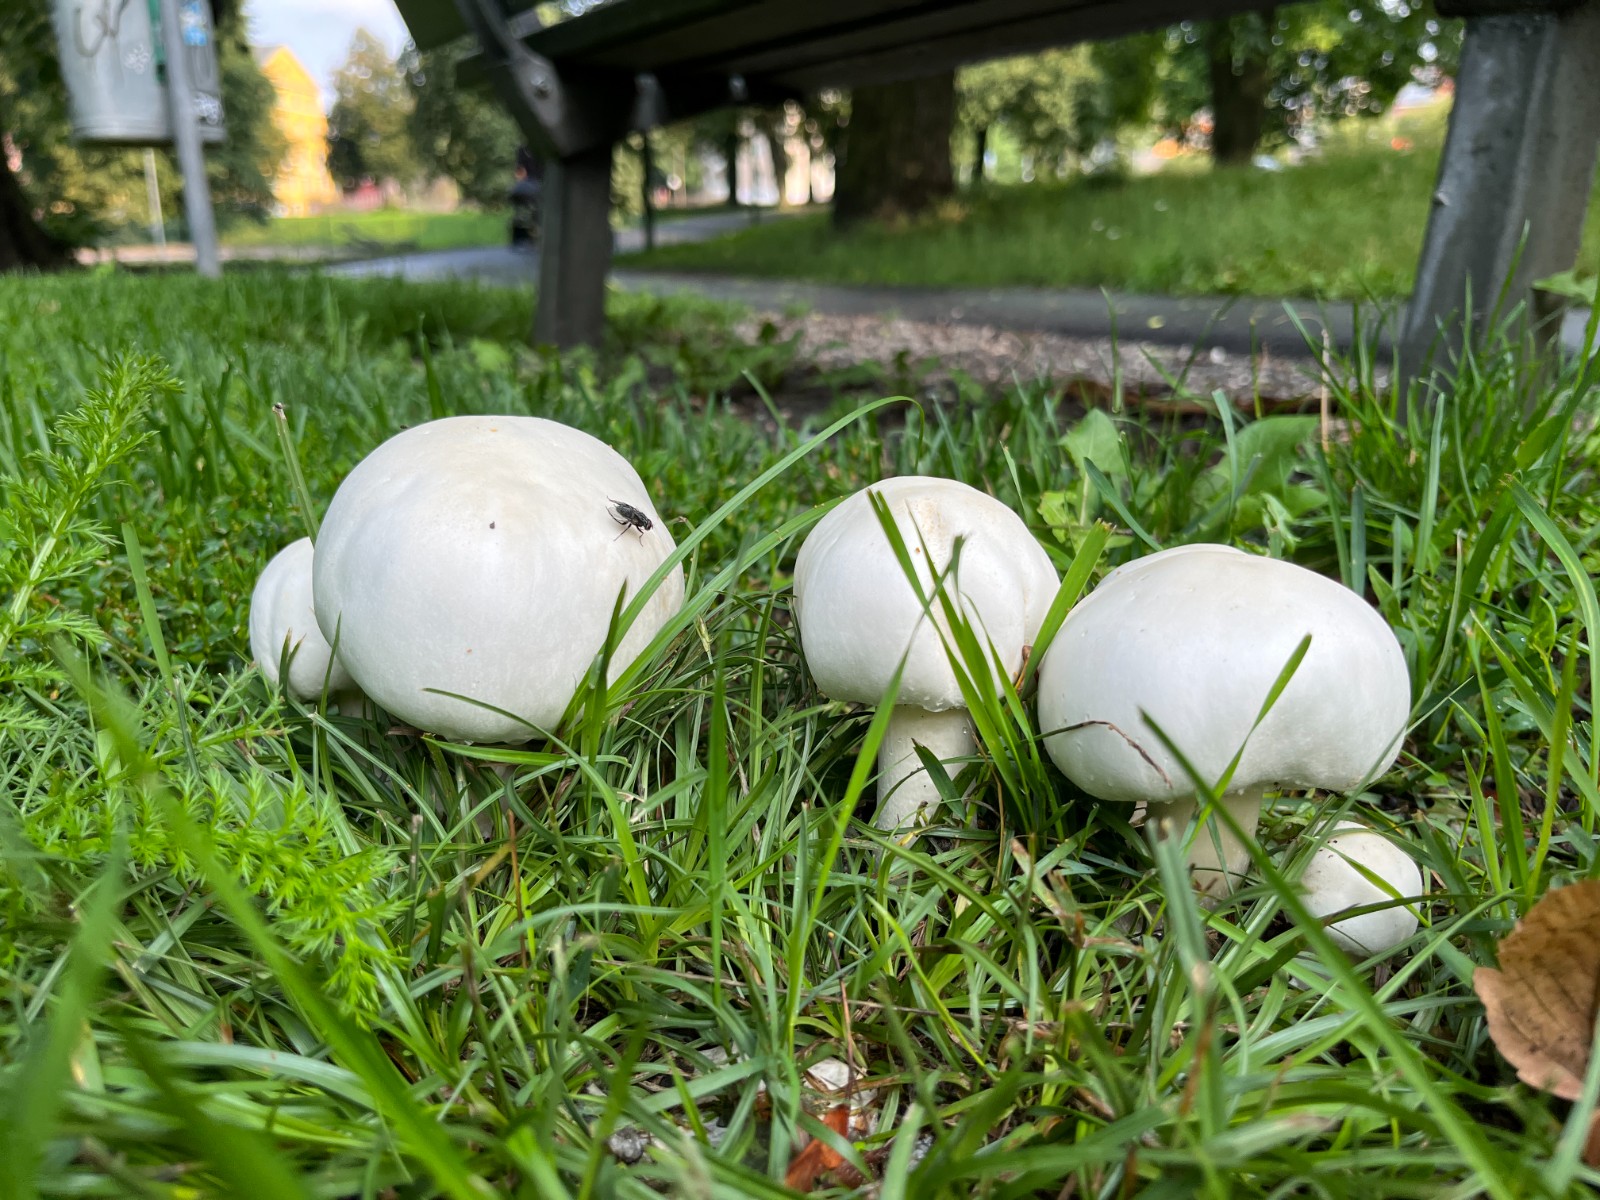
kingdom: Fungi
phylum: Basidiomycota
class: Agaricomycetes
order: Agaricales
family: Agaricaceae
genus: Agaricus
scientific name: Agaricus arvensis
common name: ager-champignon
